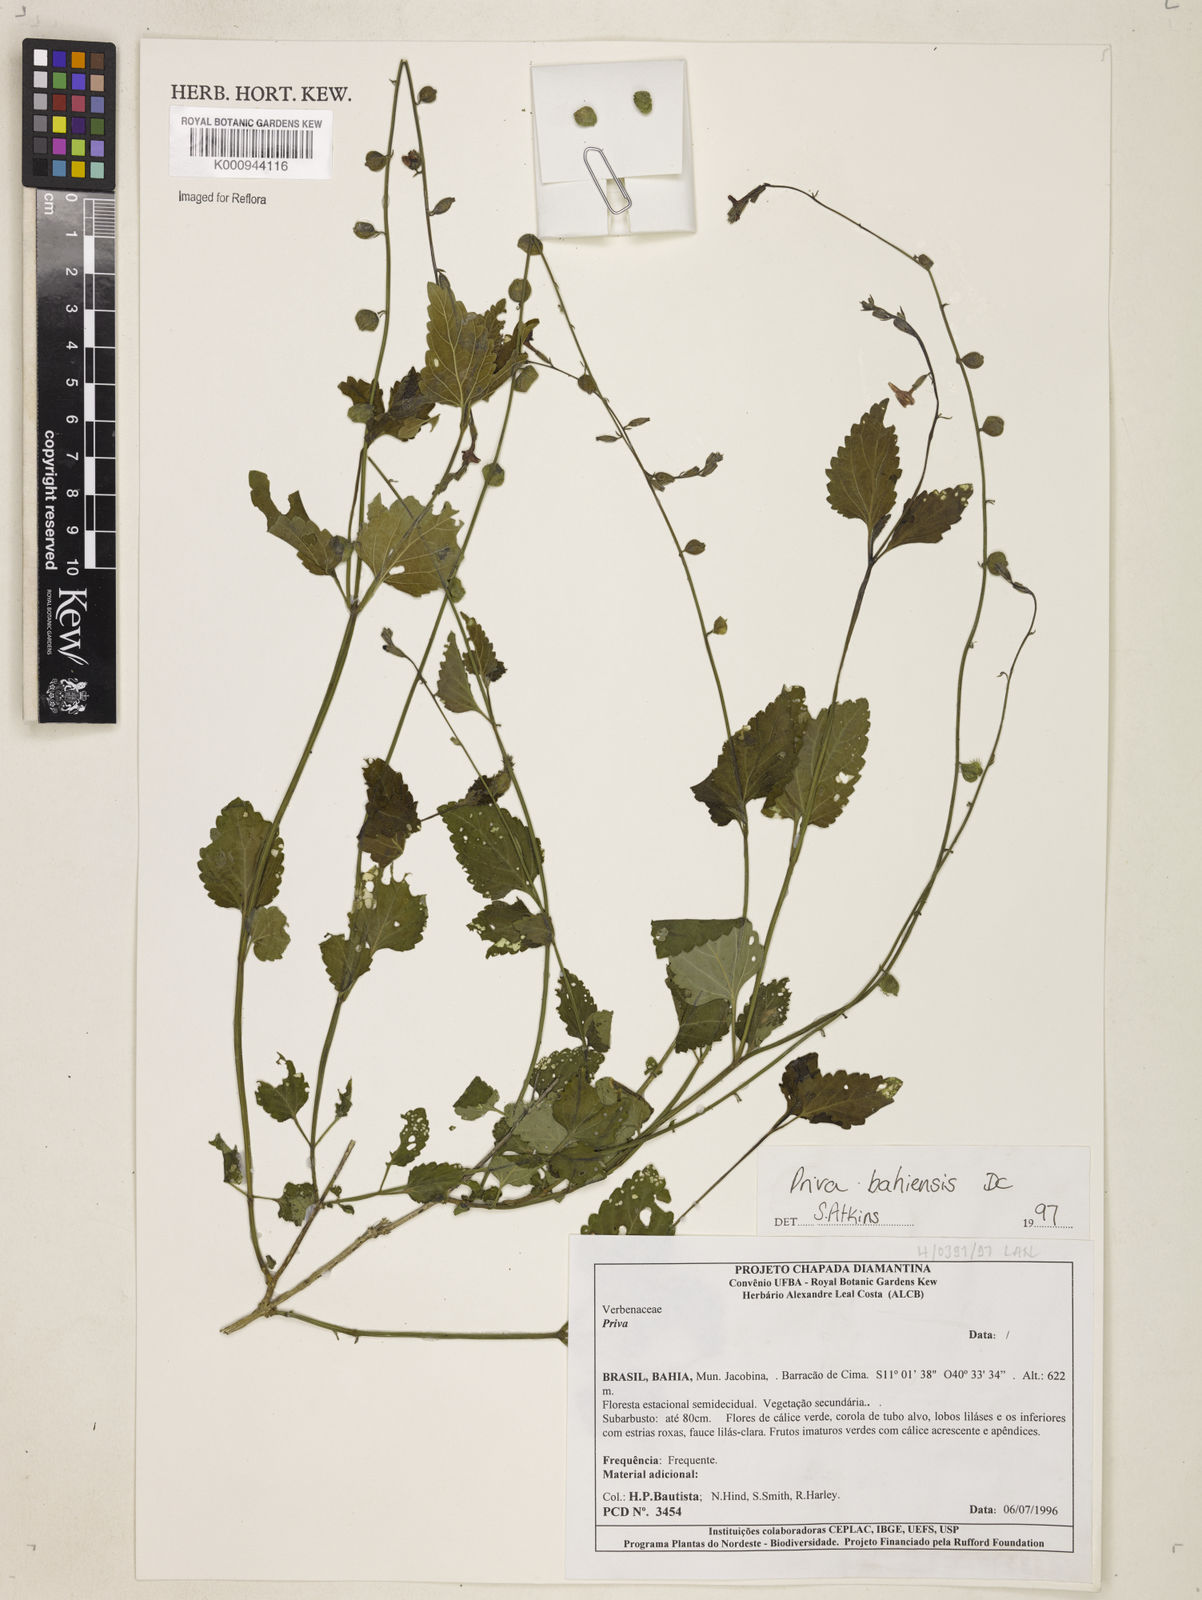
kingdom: Plantae
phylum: Tracheophyta
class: Magnoliopsida
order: Lamiales
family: Verbenaceae
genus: Priva
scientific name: Priva
